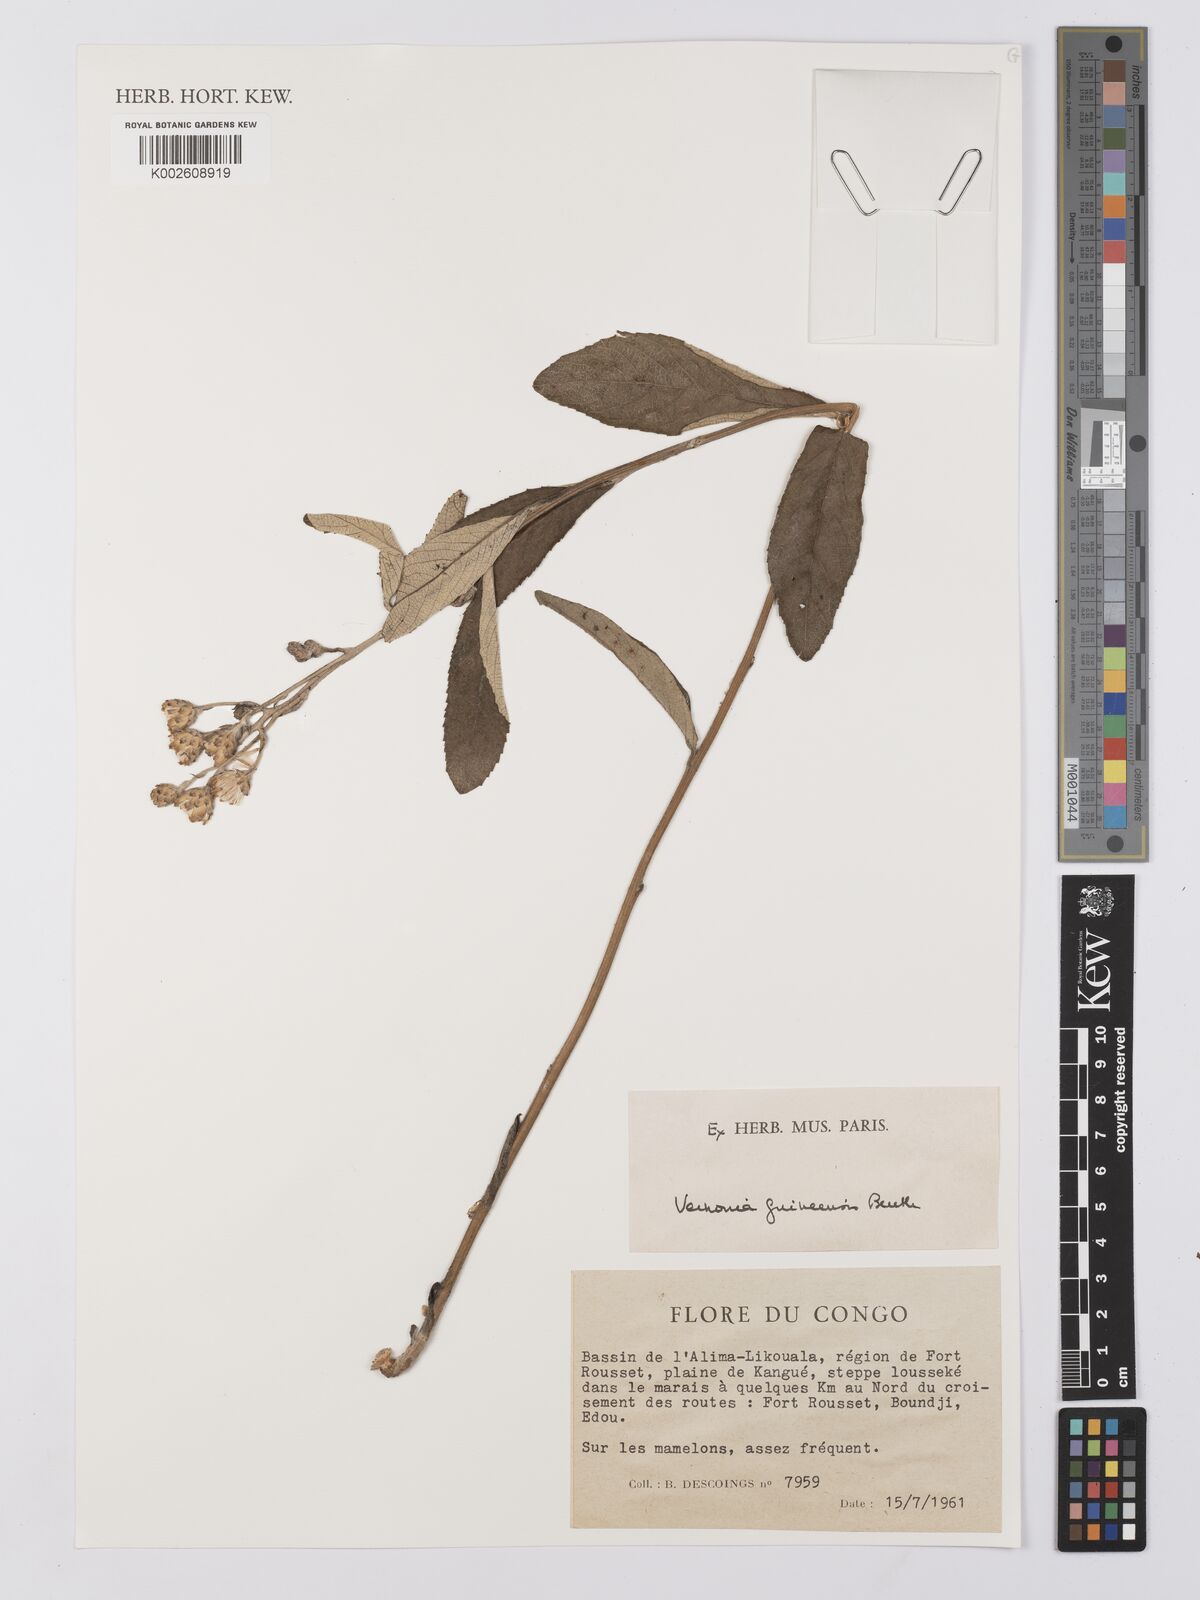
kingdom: Plantae
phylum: Tracheophyta
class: Magnoliopsida
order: Asterales
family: Asteraceae
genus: Baccharoides
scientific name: Baccharoides guineensis
